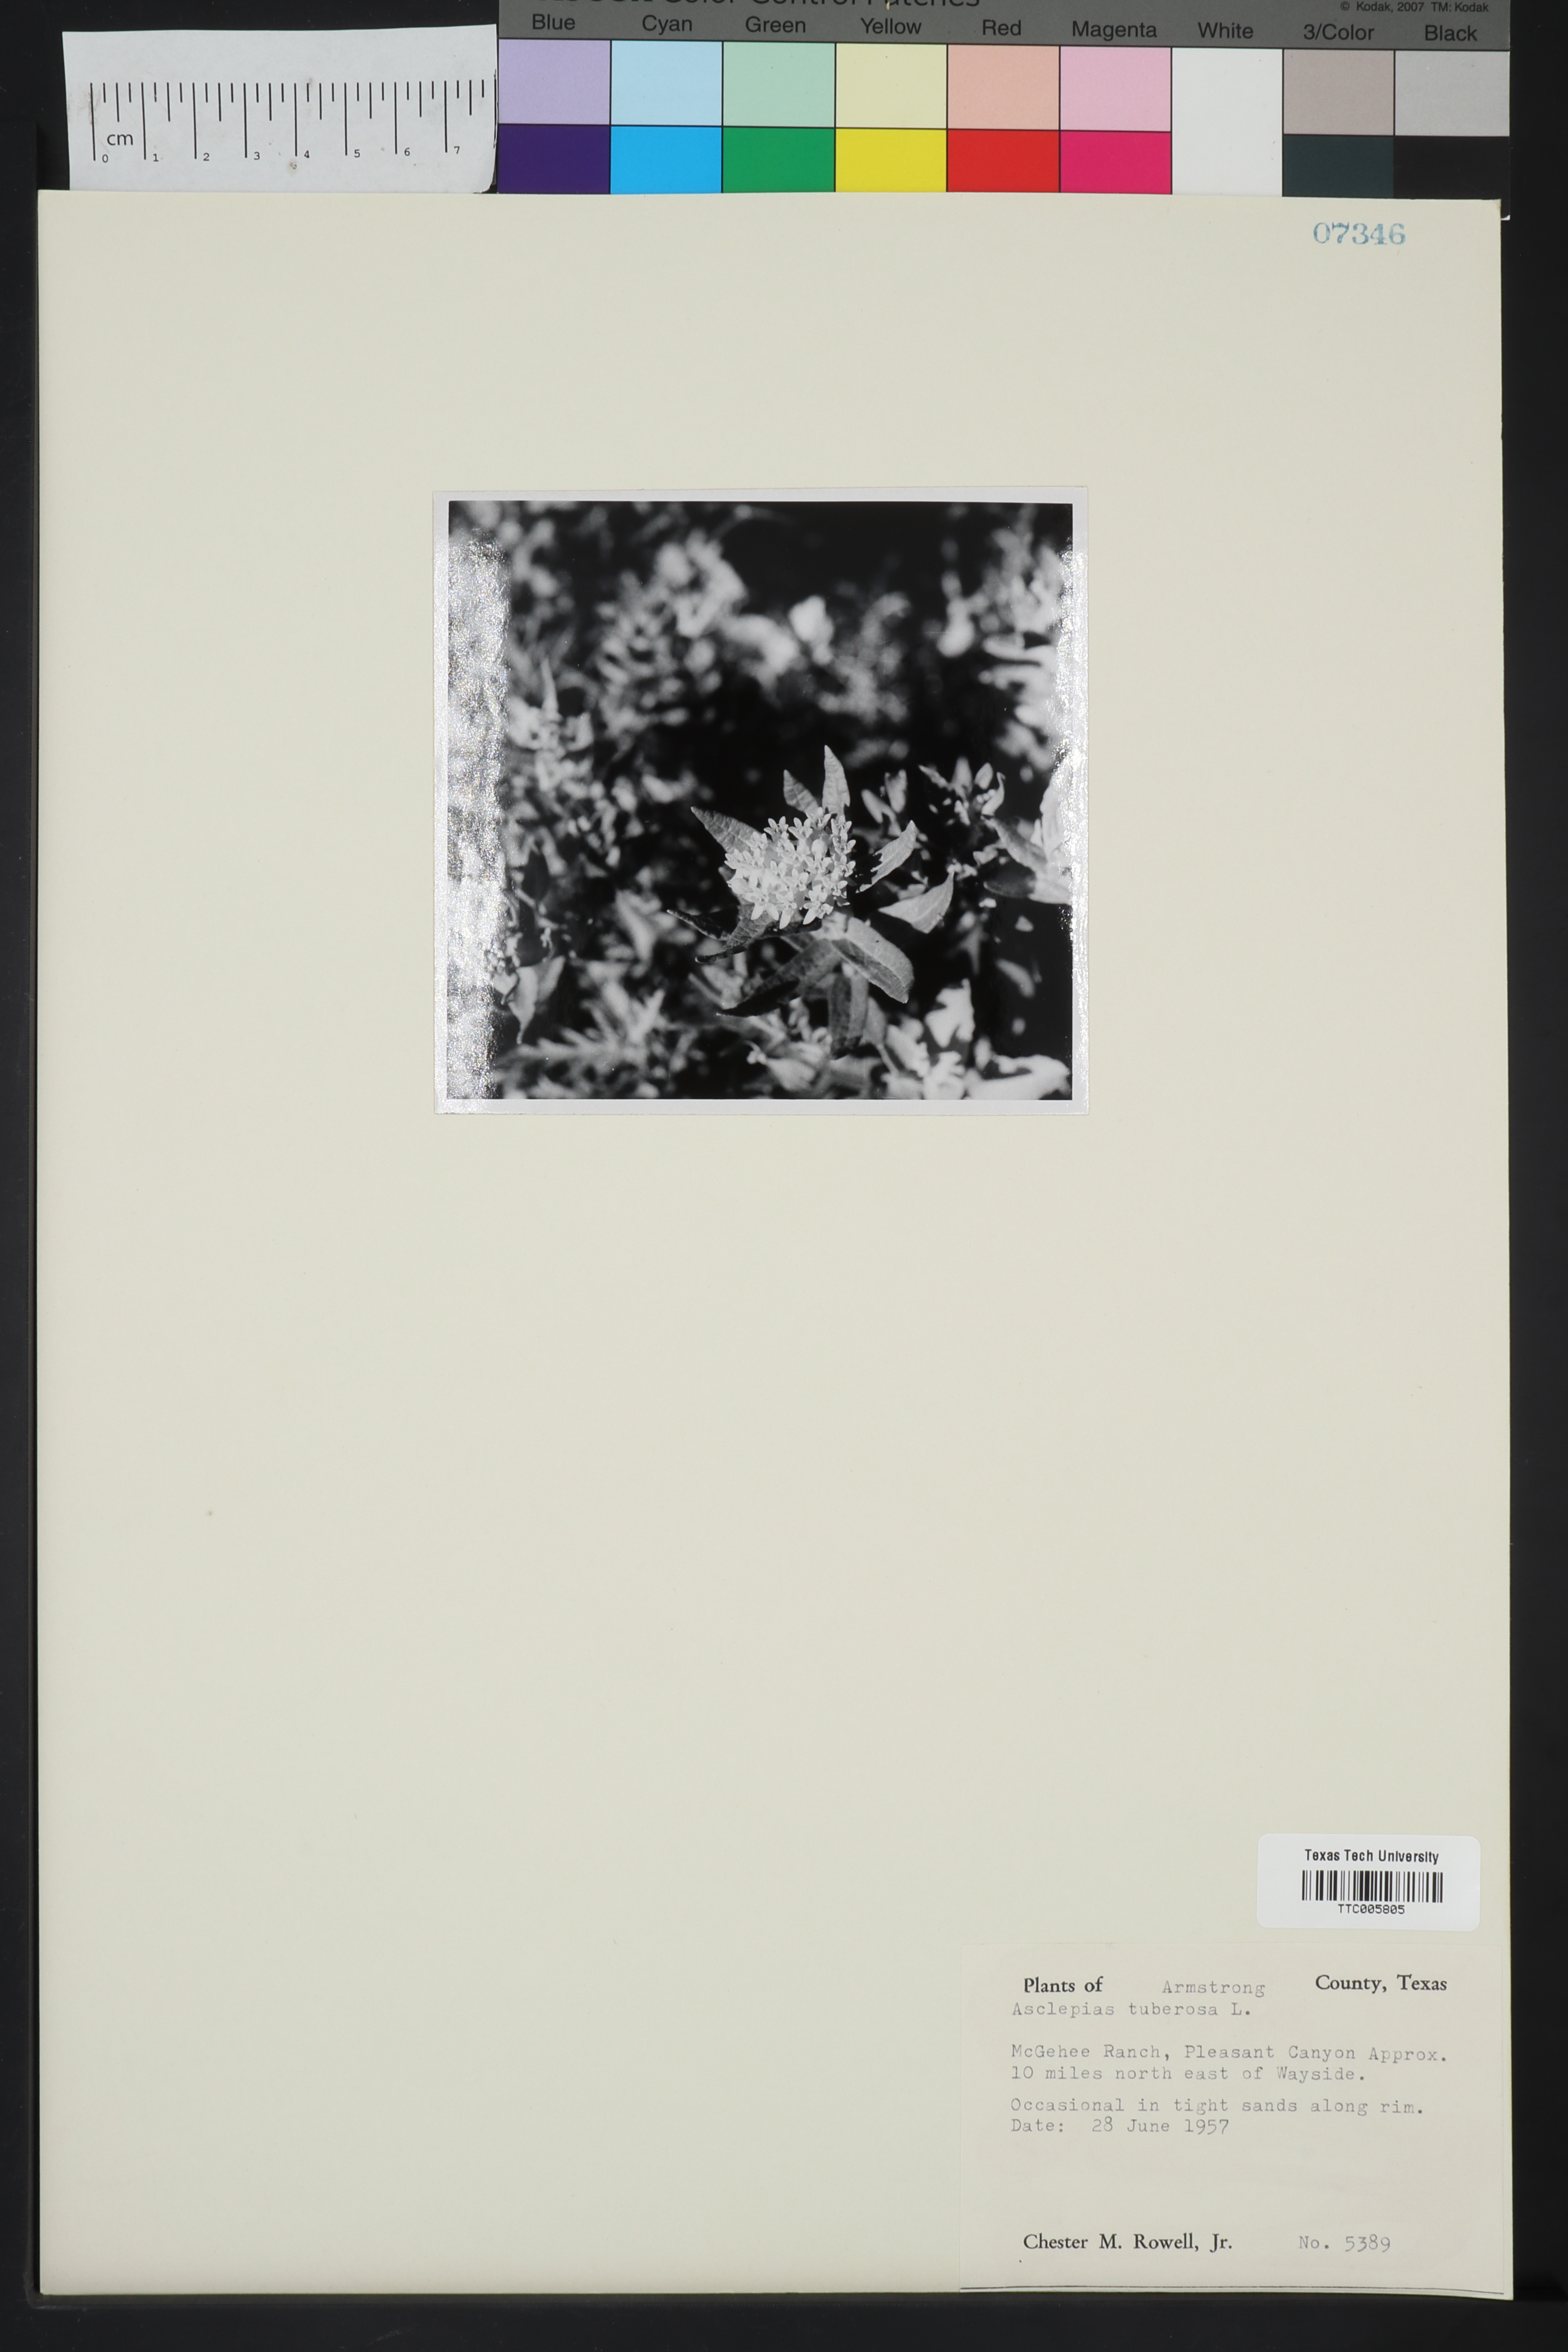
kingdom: Plantae
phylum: Tracheophyta
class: Magnoliopsida
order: Gentianales
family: Apocynaceae
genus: Asclepias
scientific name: Asclepias tuberosa
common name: Butterfly milkweed
